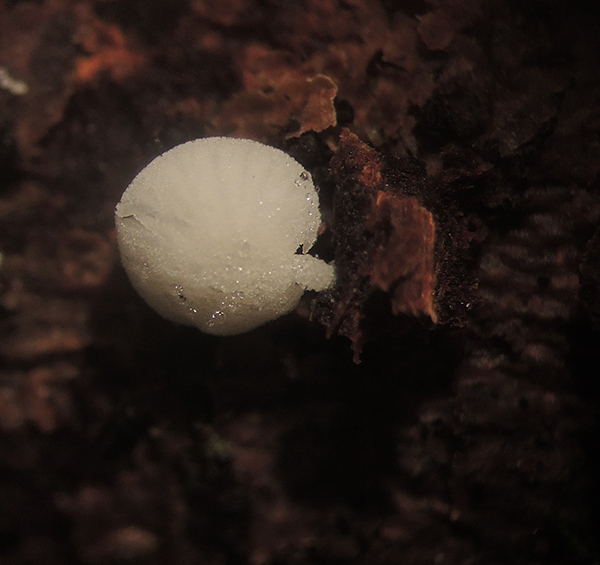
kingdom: Fungi
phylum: Basidiomycota
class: Agaricomycetes
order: Agaricales
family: Mycenaceae
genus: Hemimycena
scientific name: Hemimycena tortuosa
